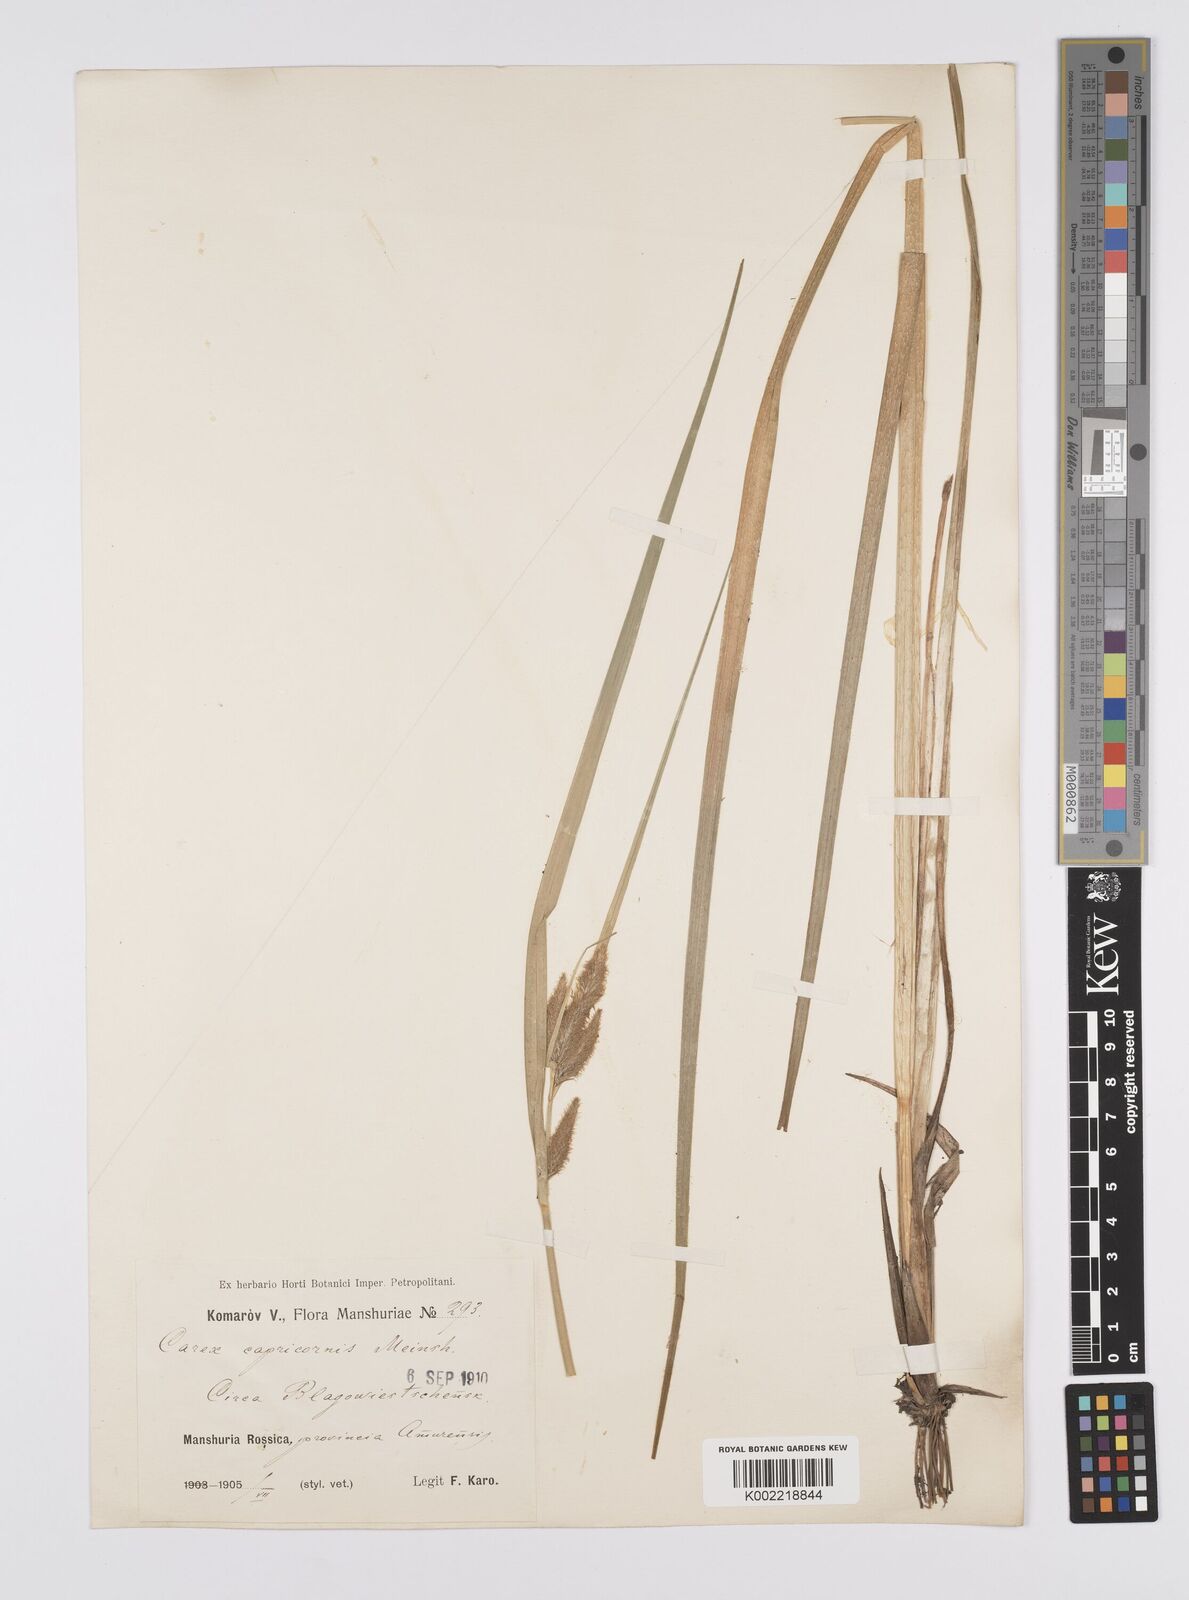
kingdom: Plantae
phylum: Tracheophyta
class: Liliopsida
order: Poales
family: Cyperaceae
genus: Carex
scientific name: Carex capricornis
